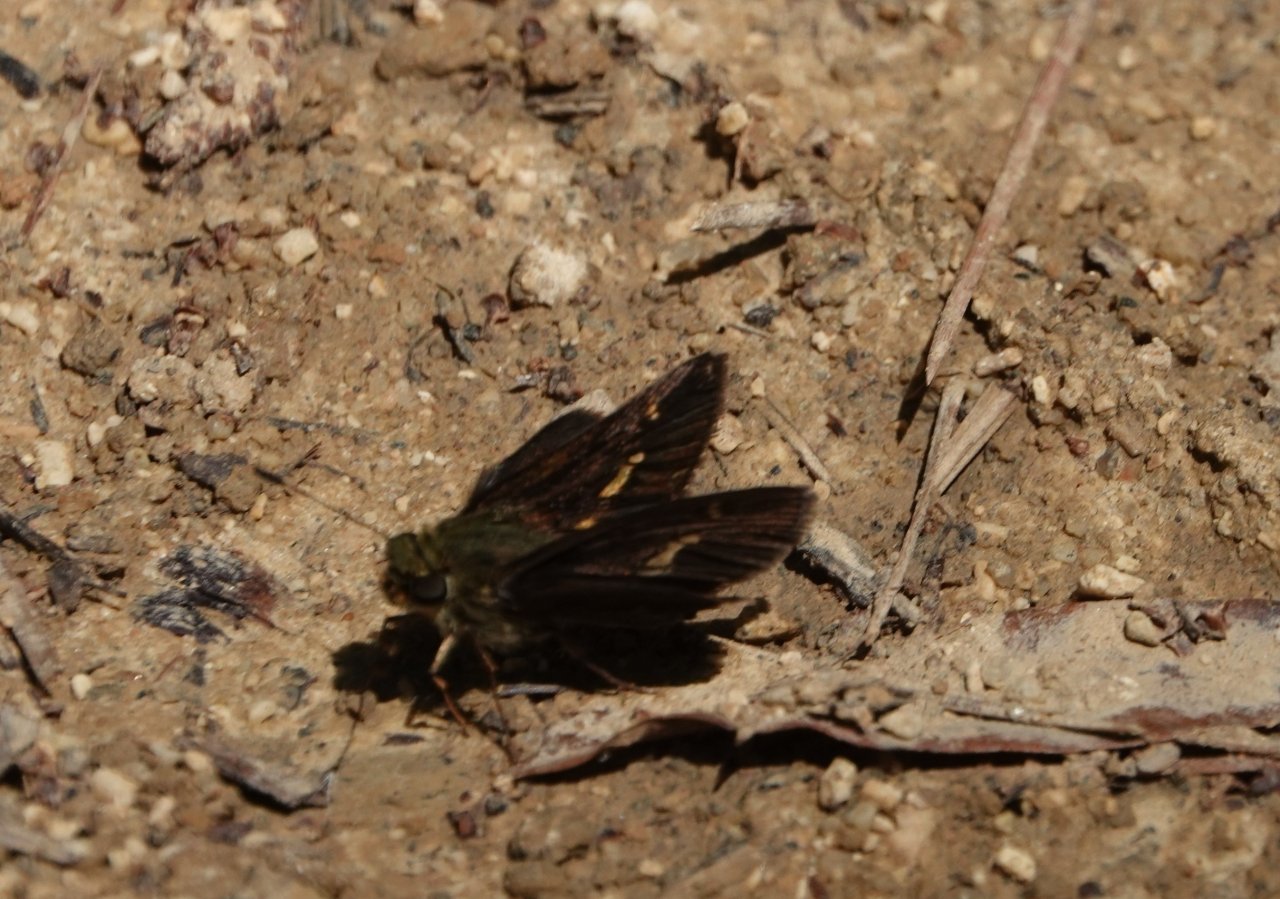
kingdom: Animalia
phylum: Arthropoda
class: Insecta
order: Lepidoptera
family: Hesperiidae
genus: Vernia
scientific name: Vernia verna
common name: Little Glassywing
